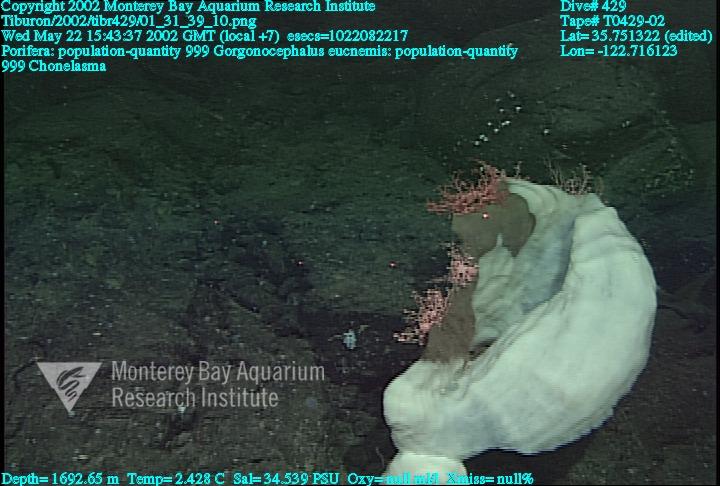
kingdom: Animalia
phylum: Porifera
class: Hexactinellida
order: Sceptrulophora
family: Euretidae
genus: Chonelasma
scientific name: Chonelasma
